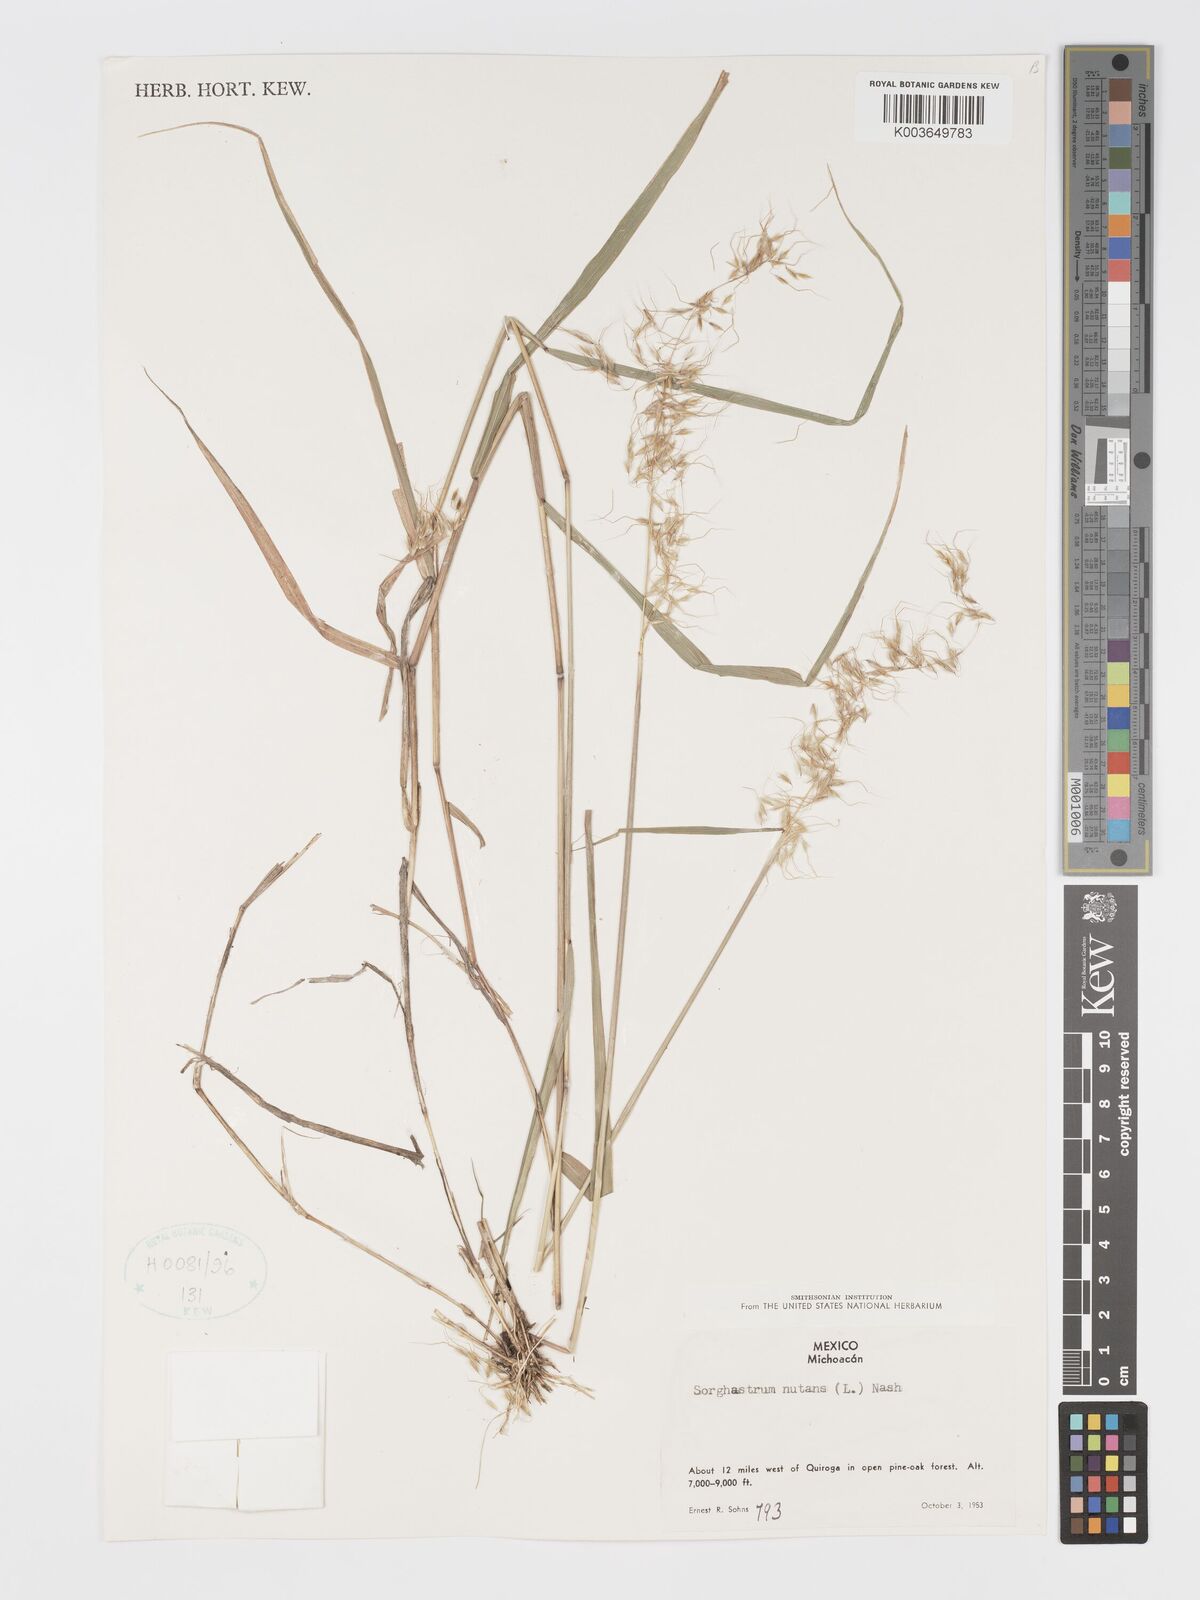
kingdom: Plantae
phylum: Tracheophyta
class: Liliopsida
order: Poales
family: Poaceae
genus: Sorghastrum
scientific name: Sorghastrum nutans
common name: Indian grass
